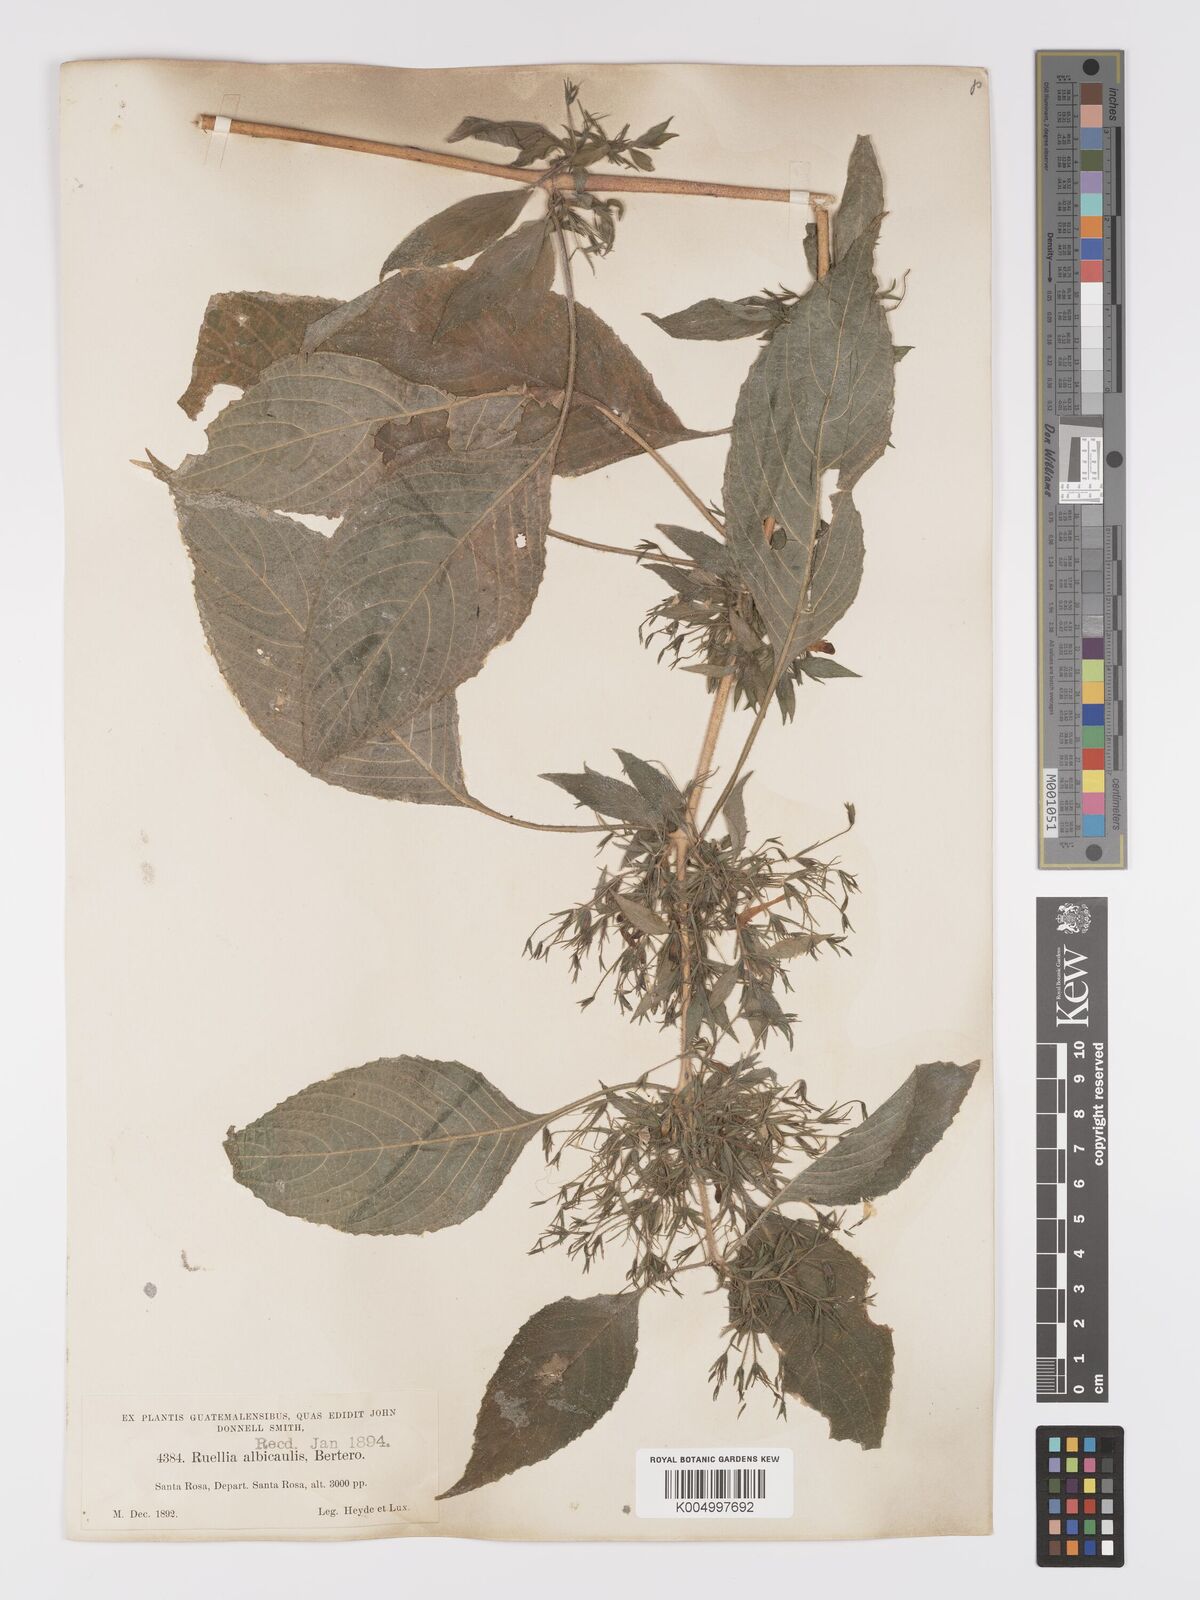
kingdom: Plantae
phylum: Tracheophyta
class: Magnoliopsida
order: Lamiales
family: Acanthaceae
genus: Ruellia
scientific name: Ruellia inundata
